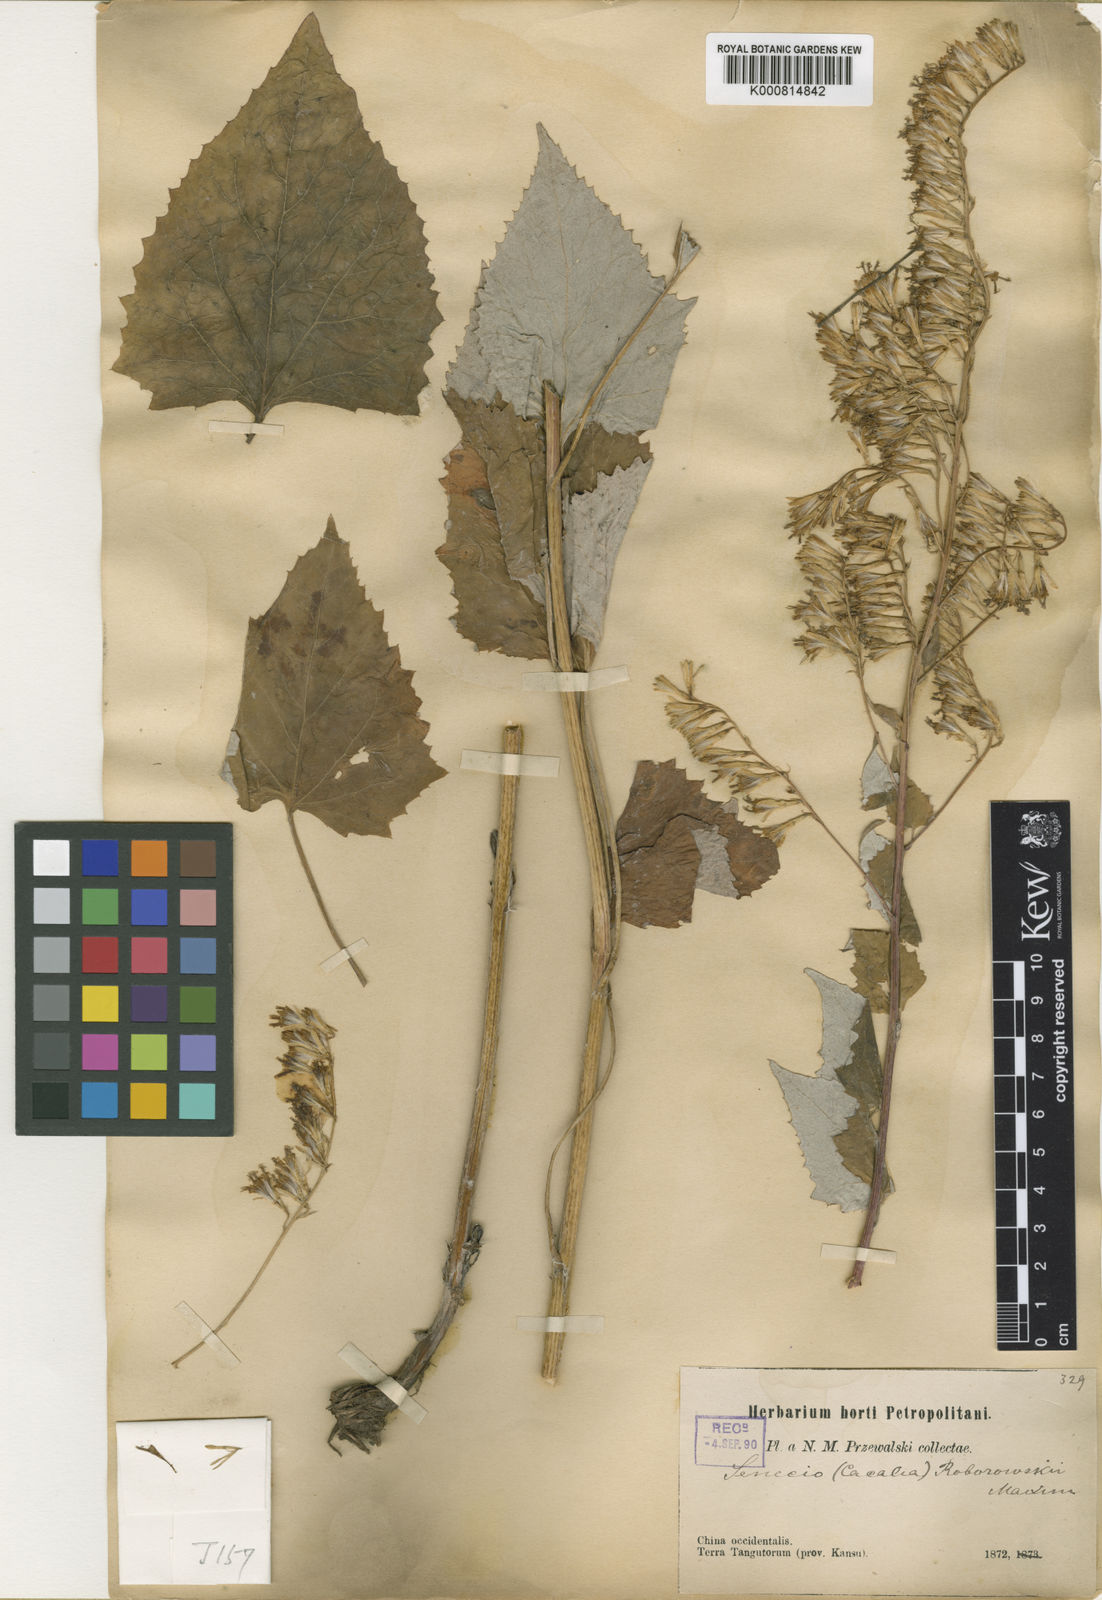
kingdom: Plantae
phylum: Tracheophyta
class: Magnoliopsida
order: Asterales
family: Asteraceae
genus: Parasenecio
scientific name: Parasenecio roborowskii
